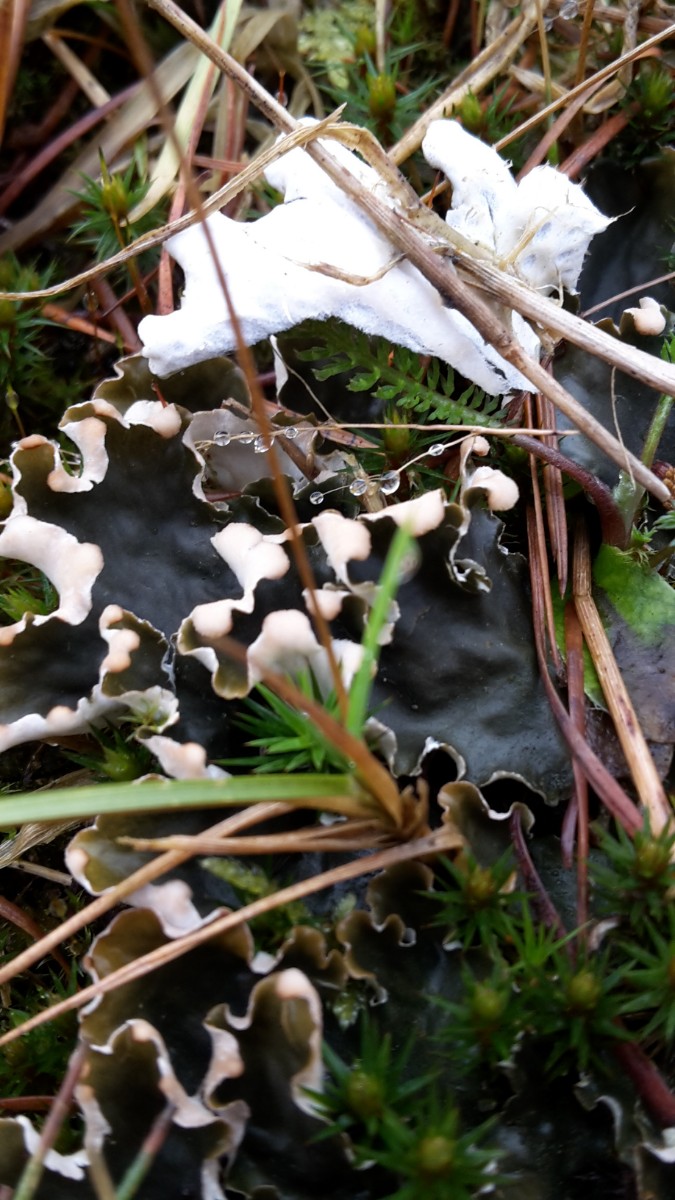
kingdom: Fungi
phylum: Ascomycota
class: Lecanoromycetes
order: Peltigerales
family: Peltigeraceae
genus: Peltigera
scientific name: Peltigera hymenina
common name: hinde-skjoldlav
